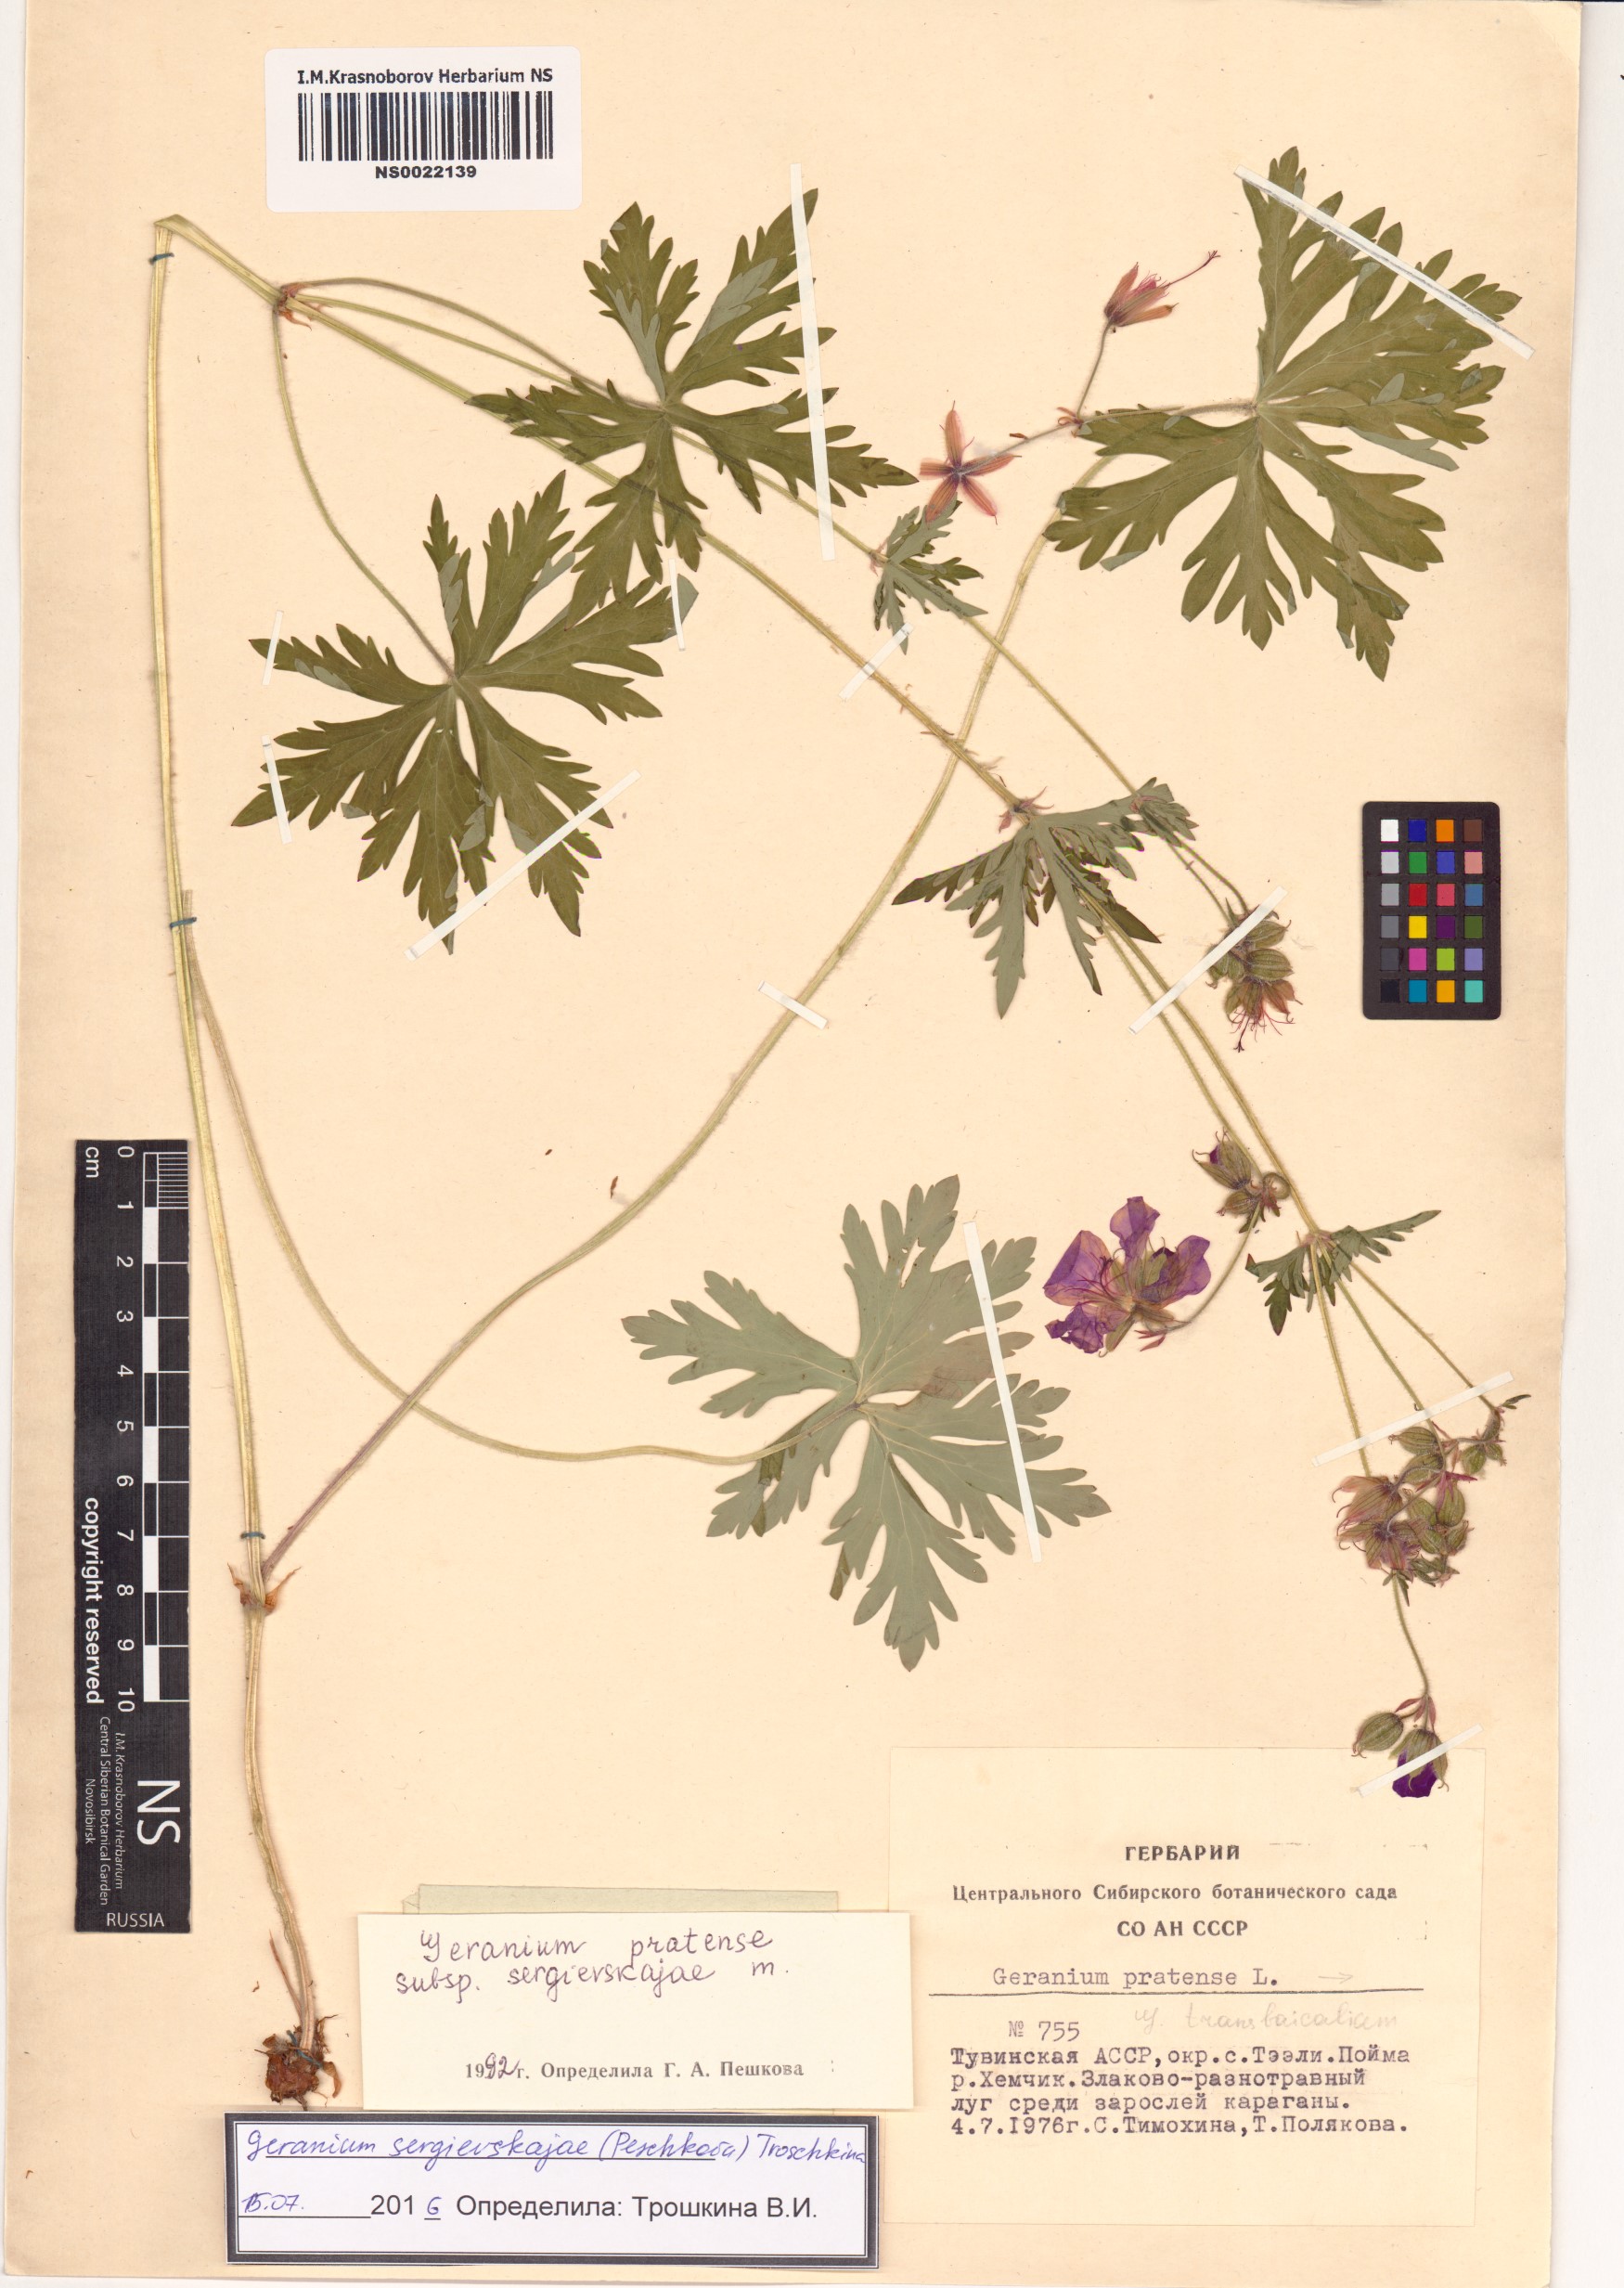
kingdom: Plantae
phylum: Tracheophyta
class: Magnoliopsida
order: Geraniales
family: Geraniaceae
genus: Geranium
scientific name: Geranium pratense
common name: Meadow crane's-bill
